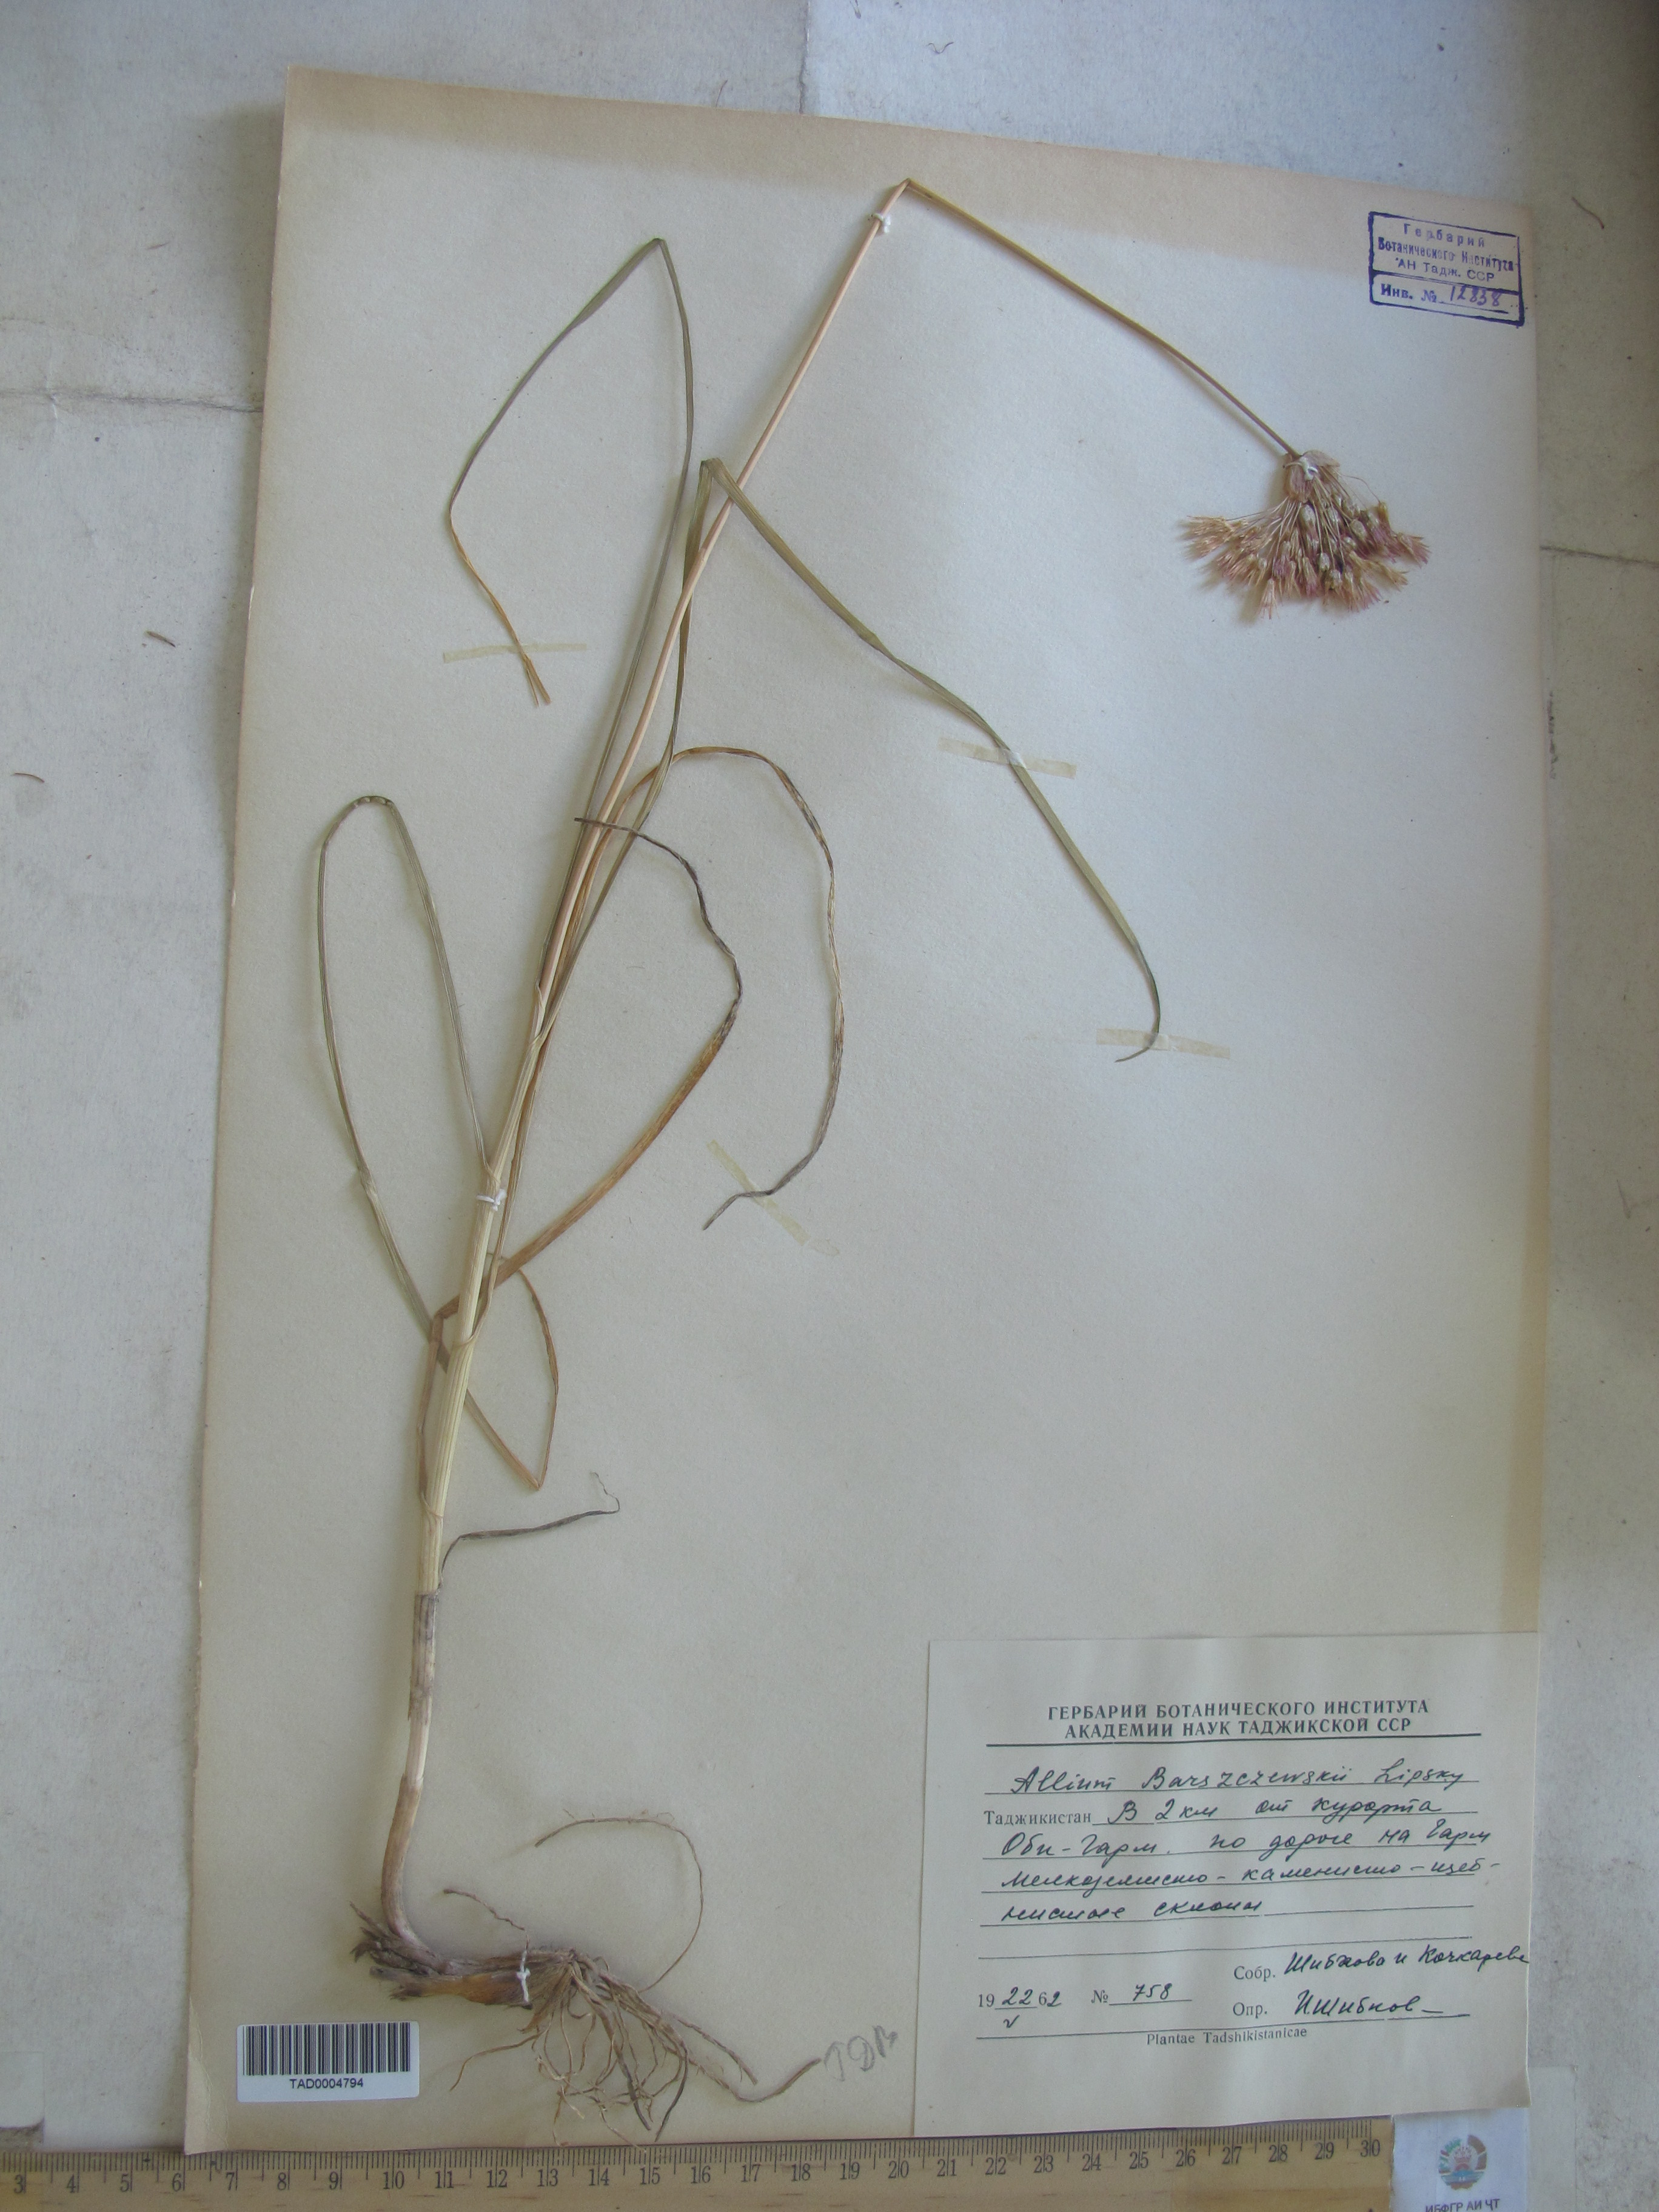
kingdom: Plantae
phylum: Tracheophyta
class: Liliopsida
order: Asparagales
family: Amaryllidaceae
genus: Allium
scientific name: Allium barsczewskii
